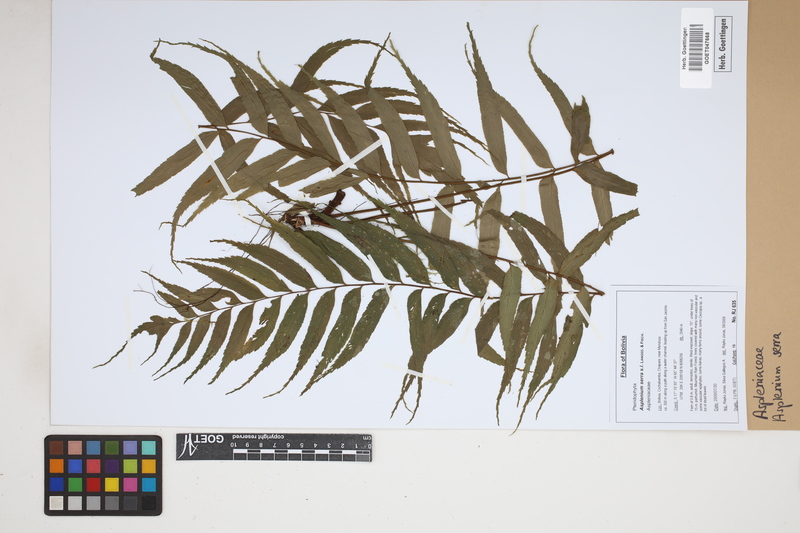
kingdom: Plantae
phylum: Tracheophyta
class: Polypodiopsida
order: Polypodiales
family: Aspleniaceae
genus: Asplenium
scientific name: Asplenium serra
